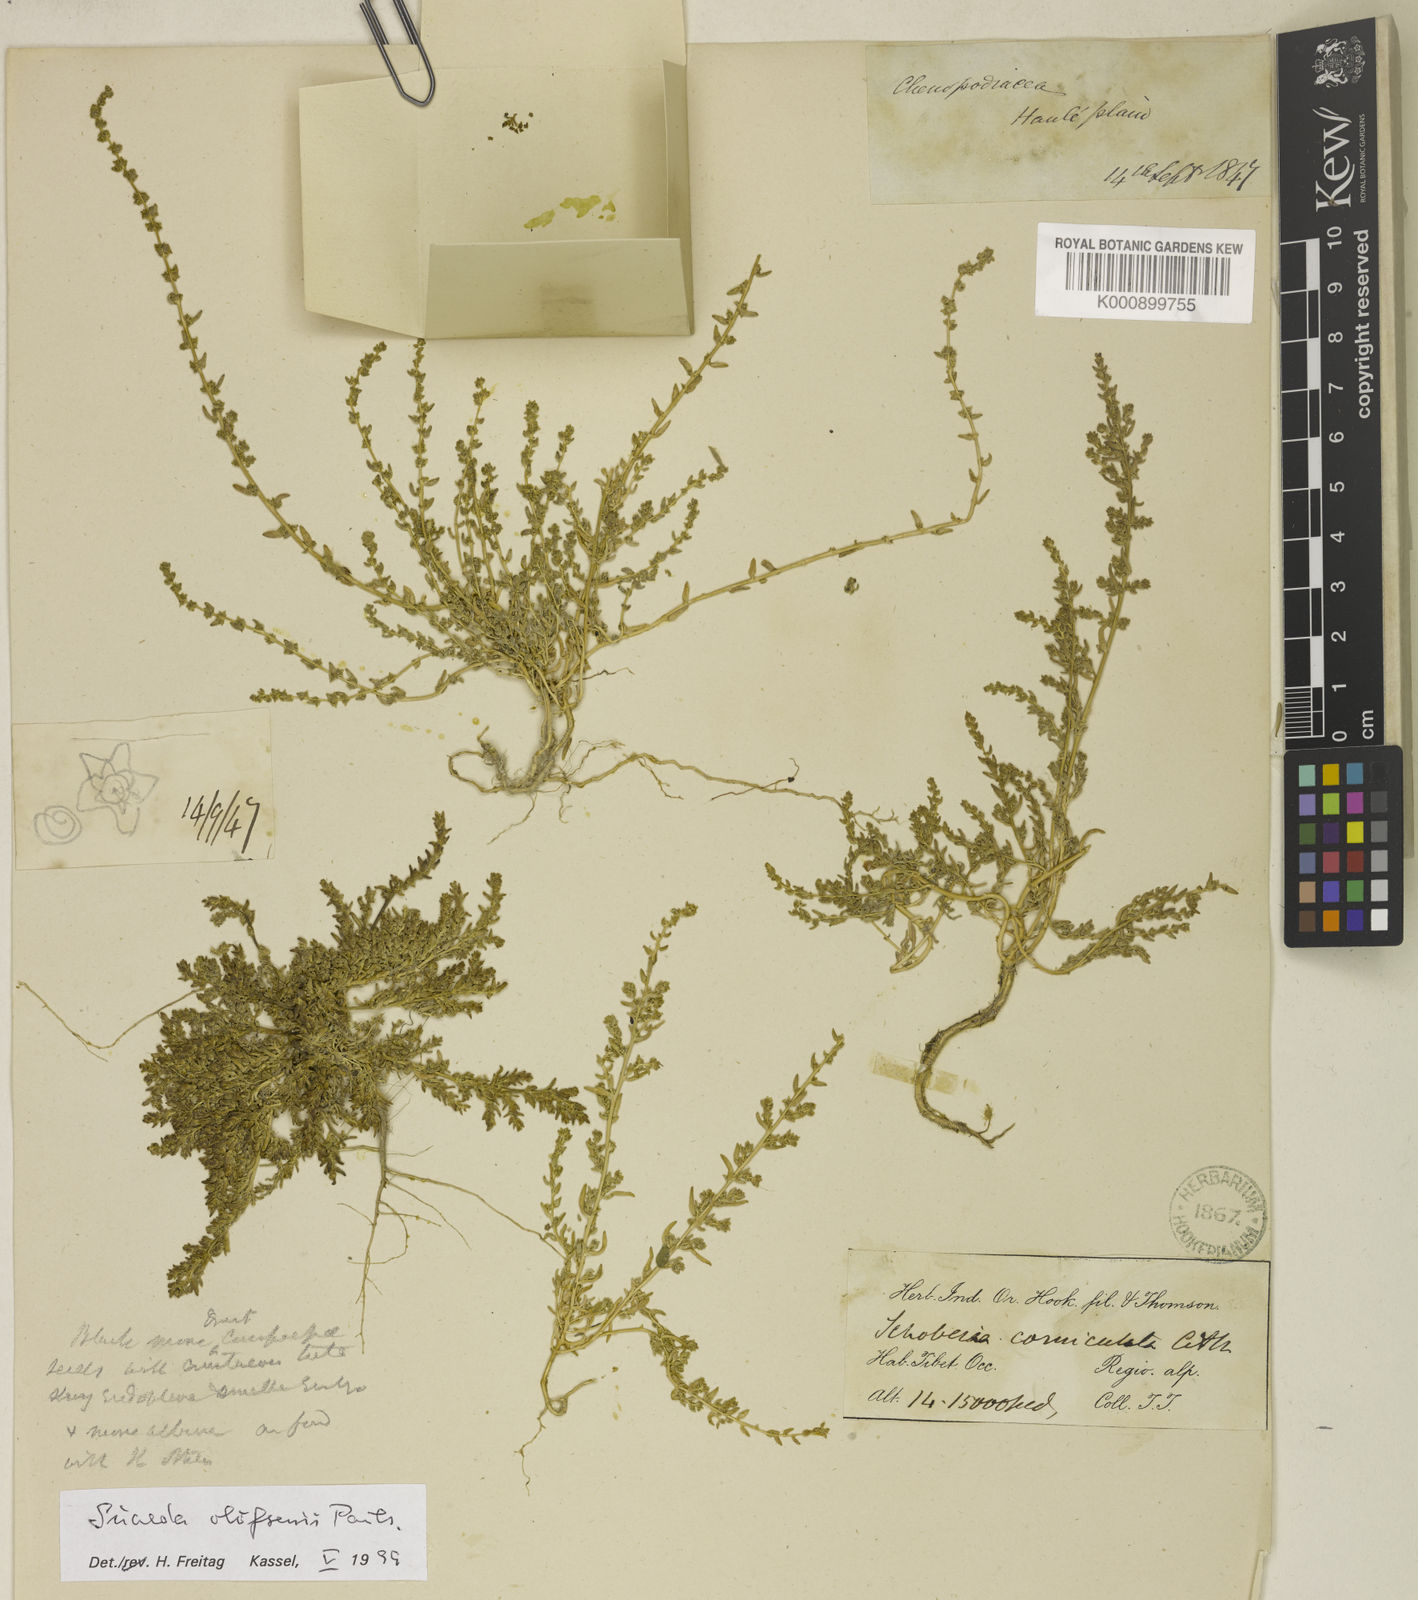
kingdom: Plantae
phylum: Tracheophyta
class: Magnoliopsida
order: Caryophyllales
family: Amaranthaceae
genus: Suaeda
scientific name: Suaeda olufsenii
